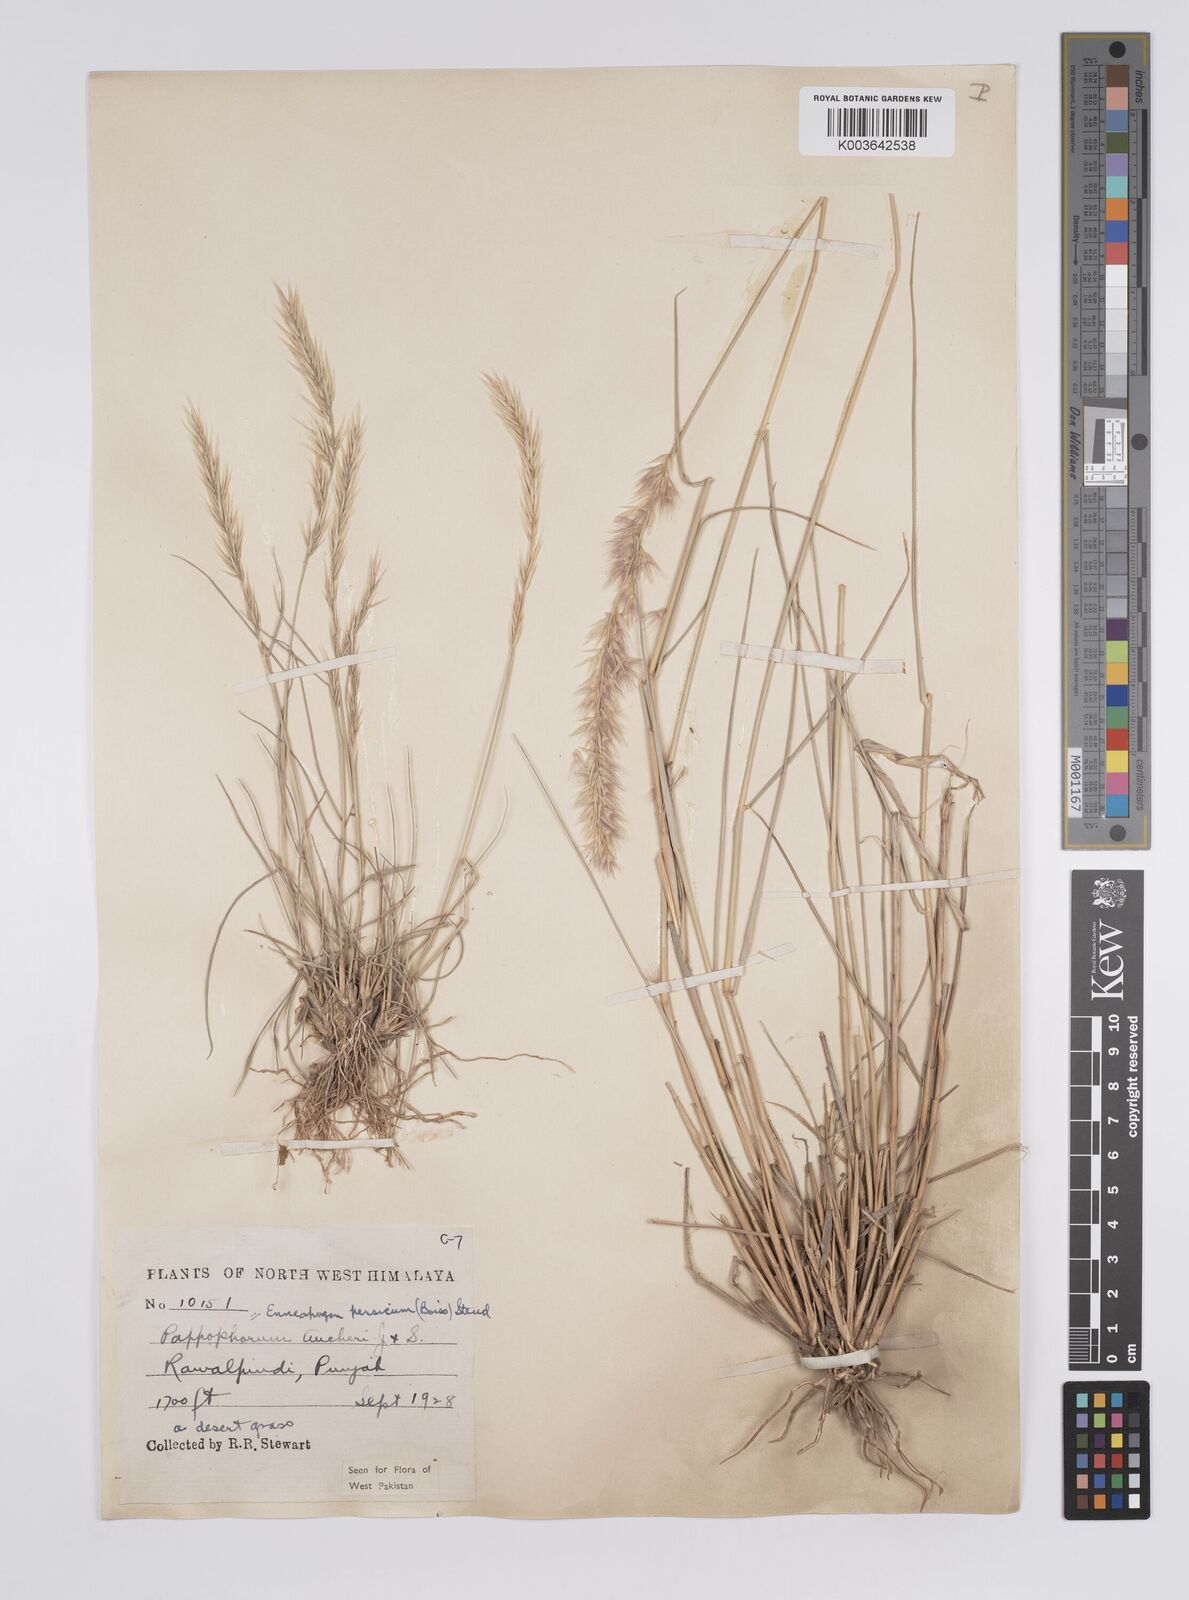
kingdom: Plantae
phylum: Tracheophyta
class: Liliopsida
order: Poales
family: Poaceae
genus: Enneapogon
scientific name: Enneapogon persicus
